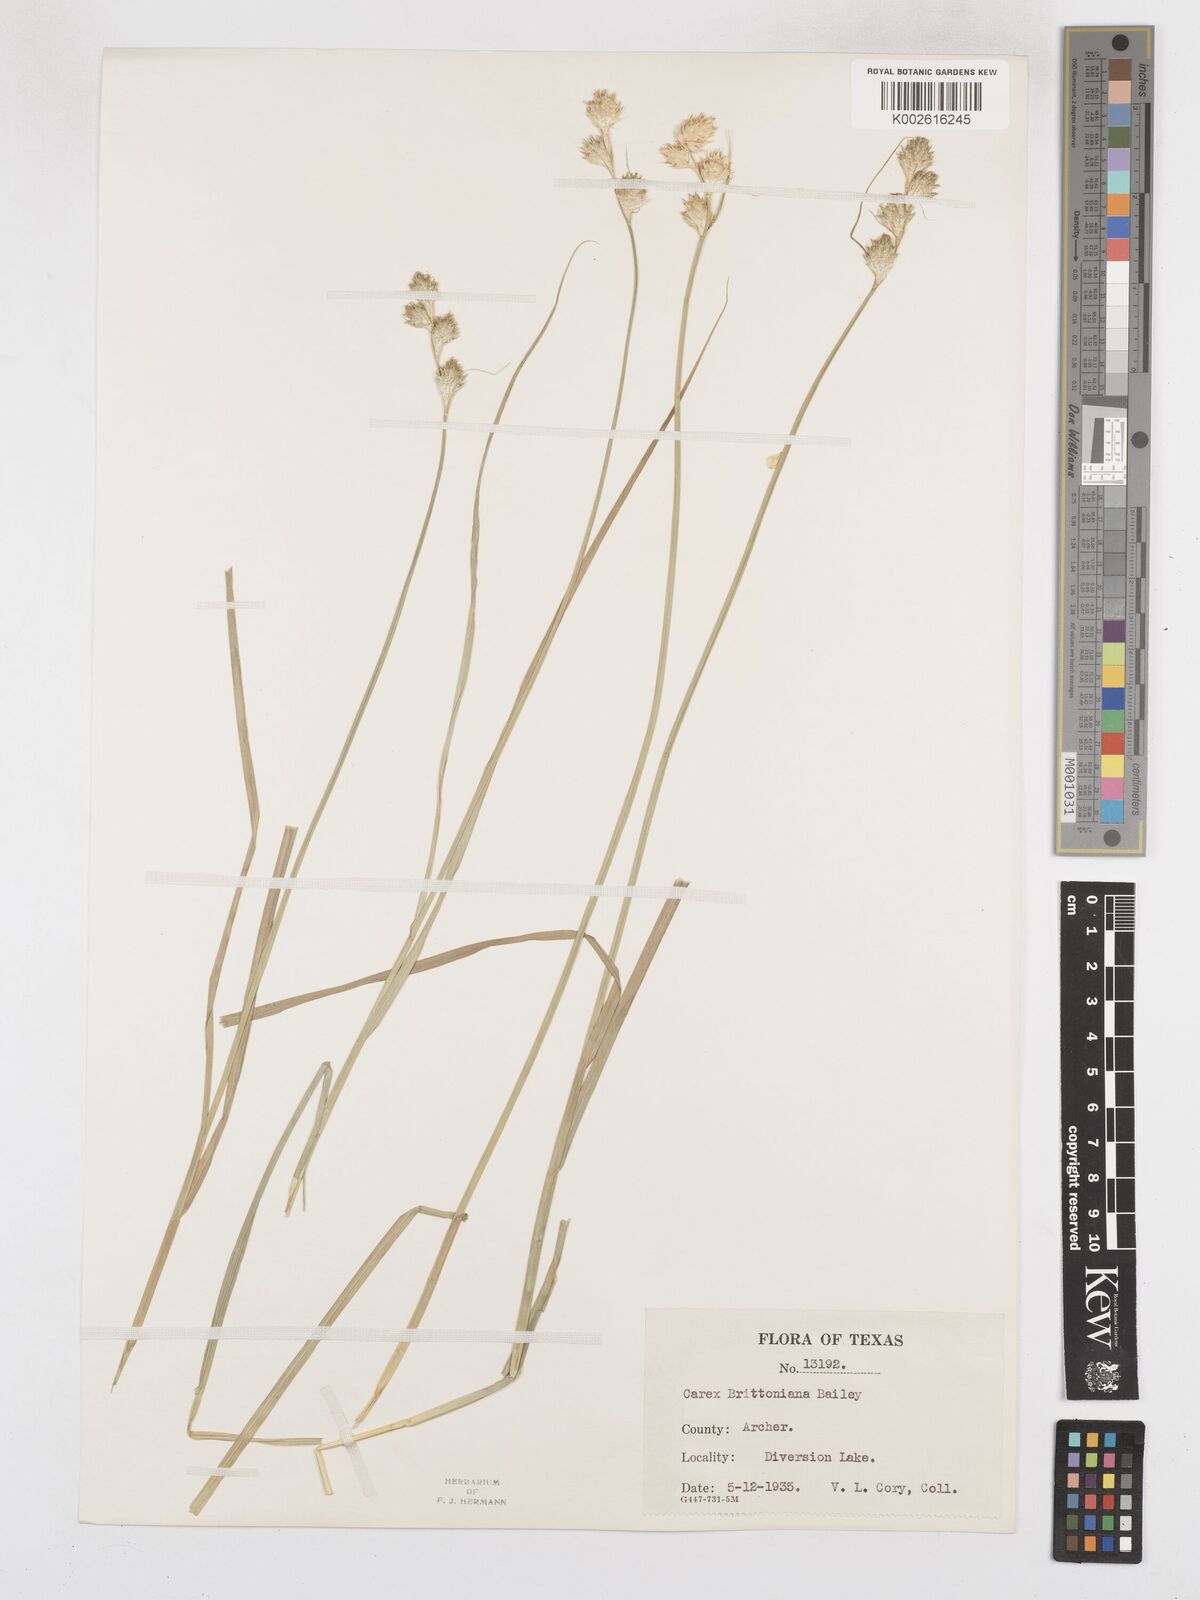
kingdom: Plantae
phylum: Tracheophyta
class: Liliopsida
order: Poales
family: Cyperaceae
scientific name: Cyperaceae
